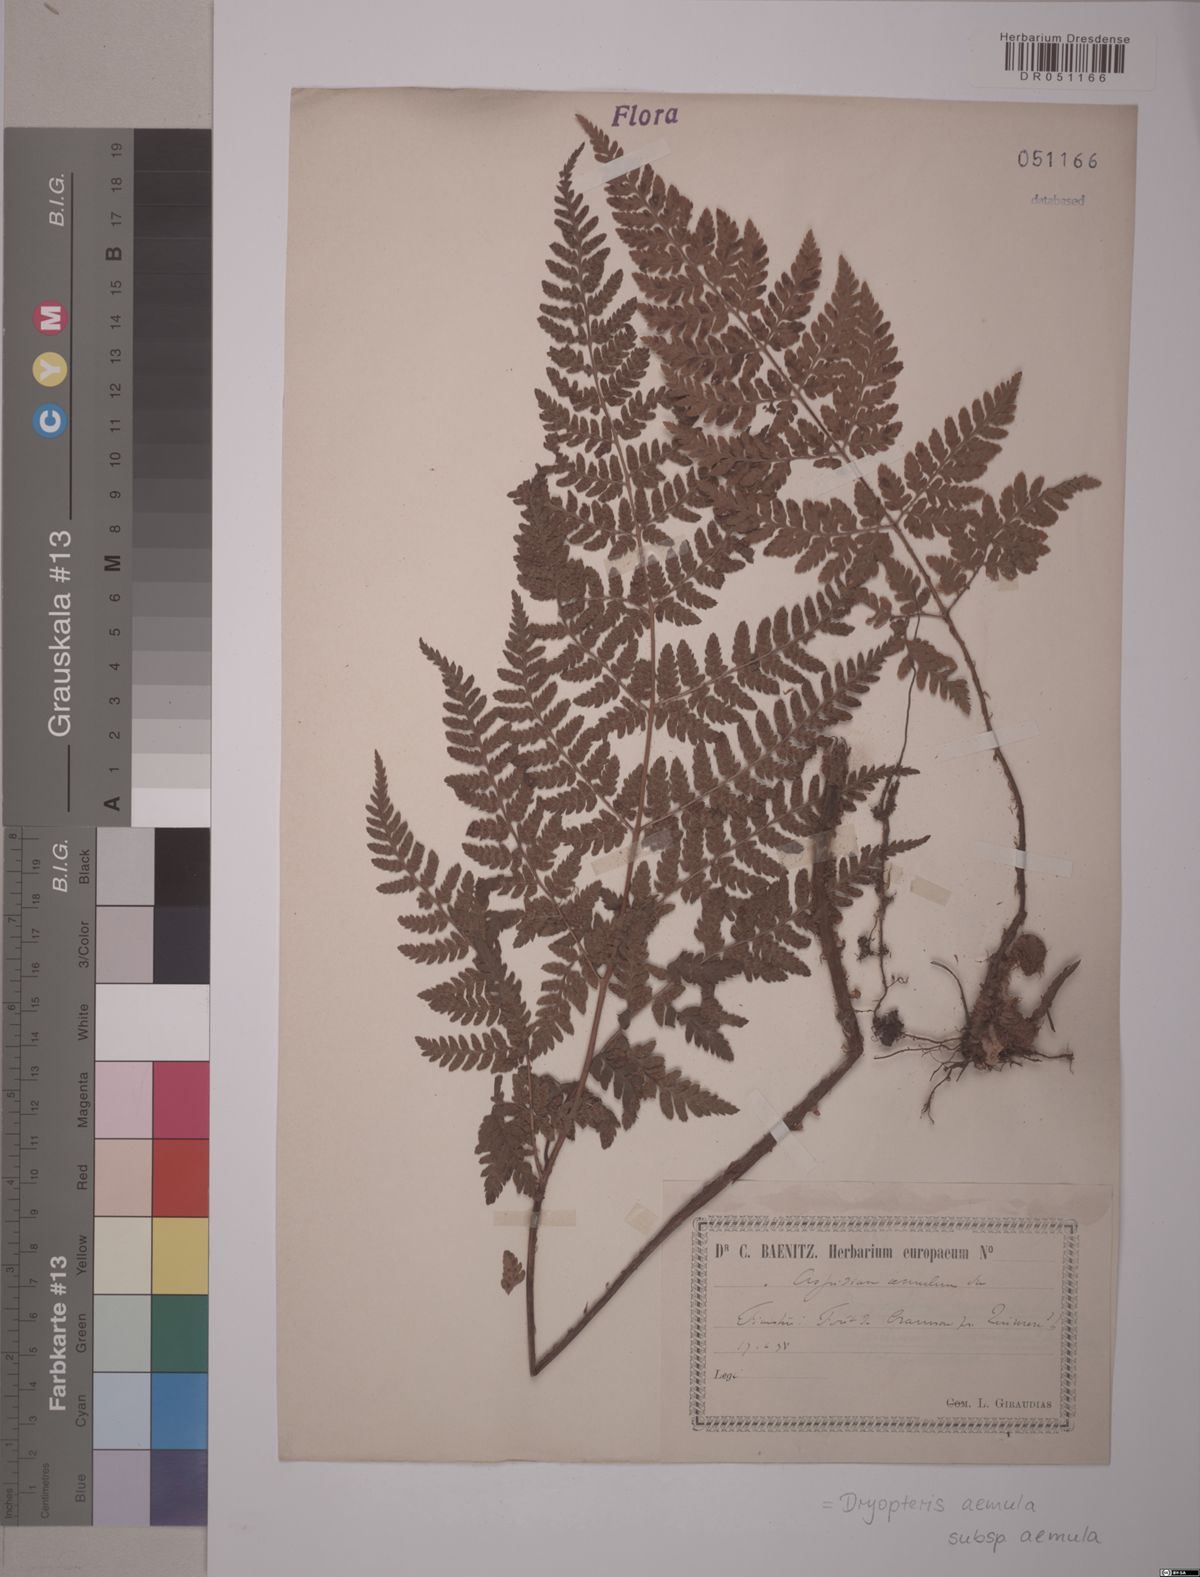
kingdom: Plantae
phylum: Tracheophyta
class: Polypodiopsida
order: Polypodiales
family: Dryopteridaceae
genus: Dryopteris
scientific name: Dryopteris aemula
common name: Hay-scented buckler-fern
